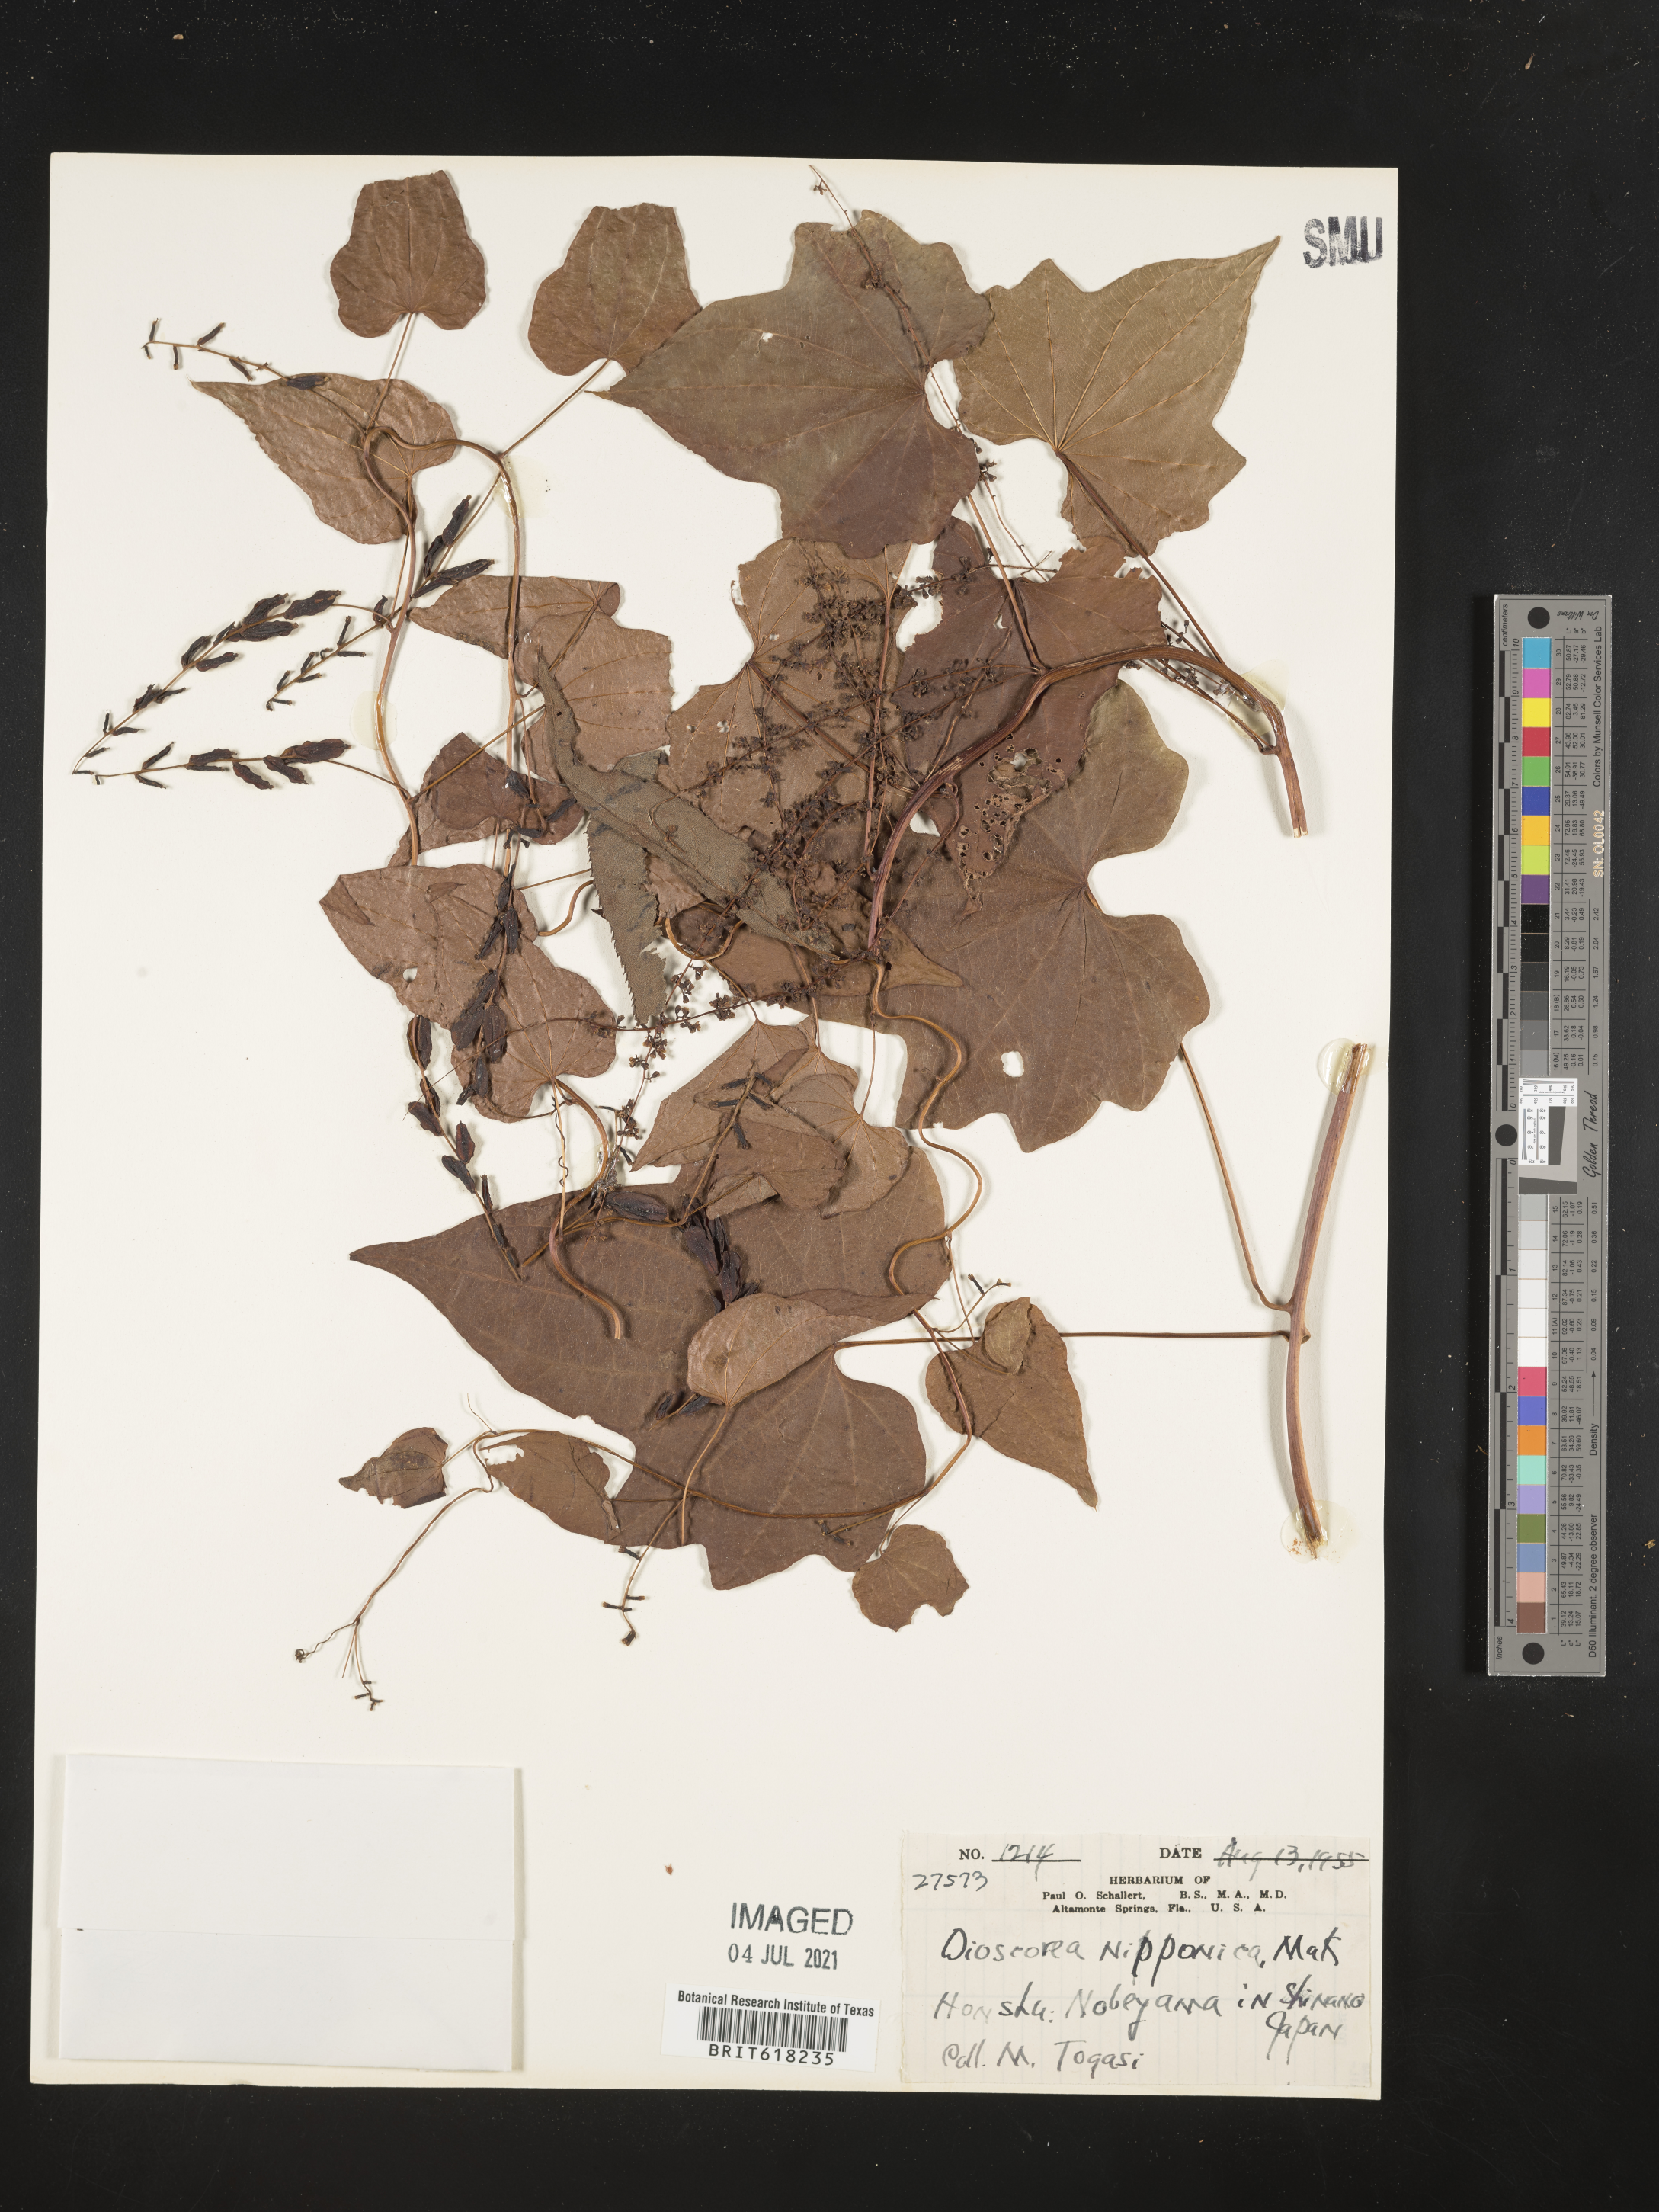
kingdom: Plantae
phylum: Tracheophyta
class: Liliopsida
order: Dioscoreales
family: Dioscoreaceae
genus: Dioscorea
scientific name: Dioscorea nipponica
